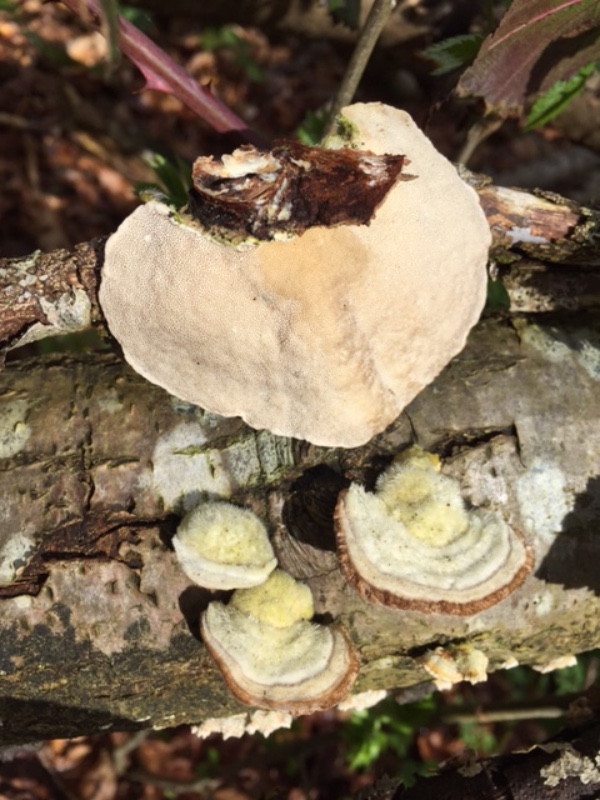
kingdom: Fungi
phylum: Basidiomycota
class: Agaricomycetes
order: Polyporales
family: Polyporaceae
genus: Trametes
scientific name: Trametes gibbosa
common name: puklet læderporesvamp
